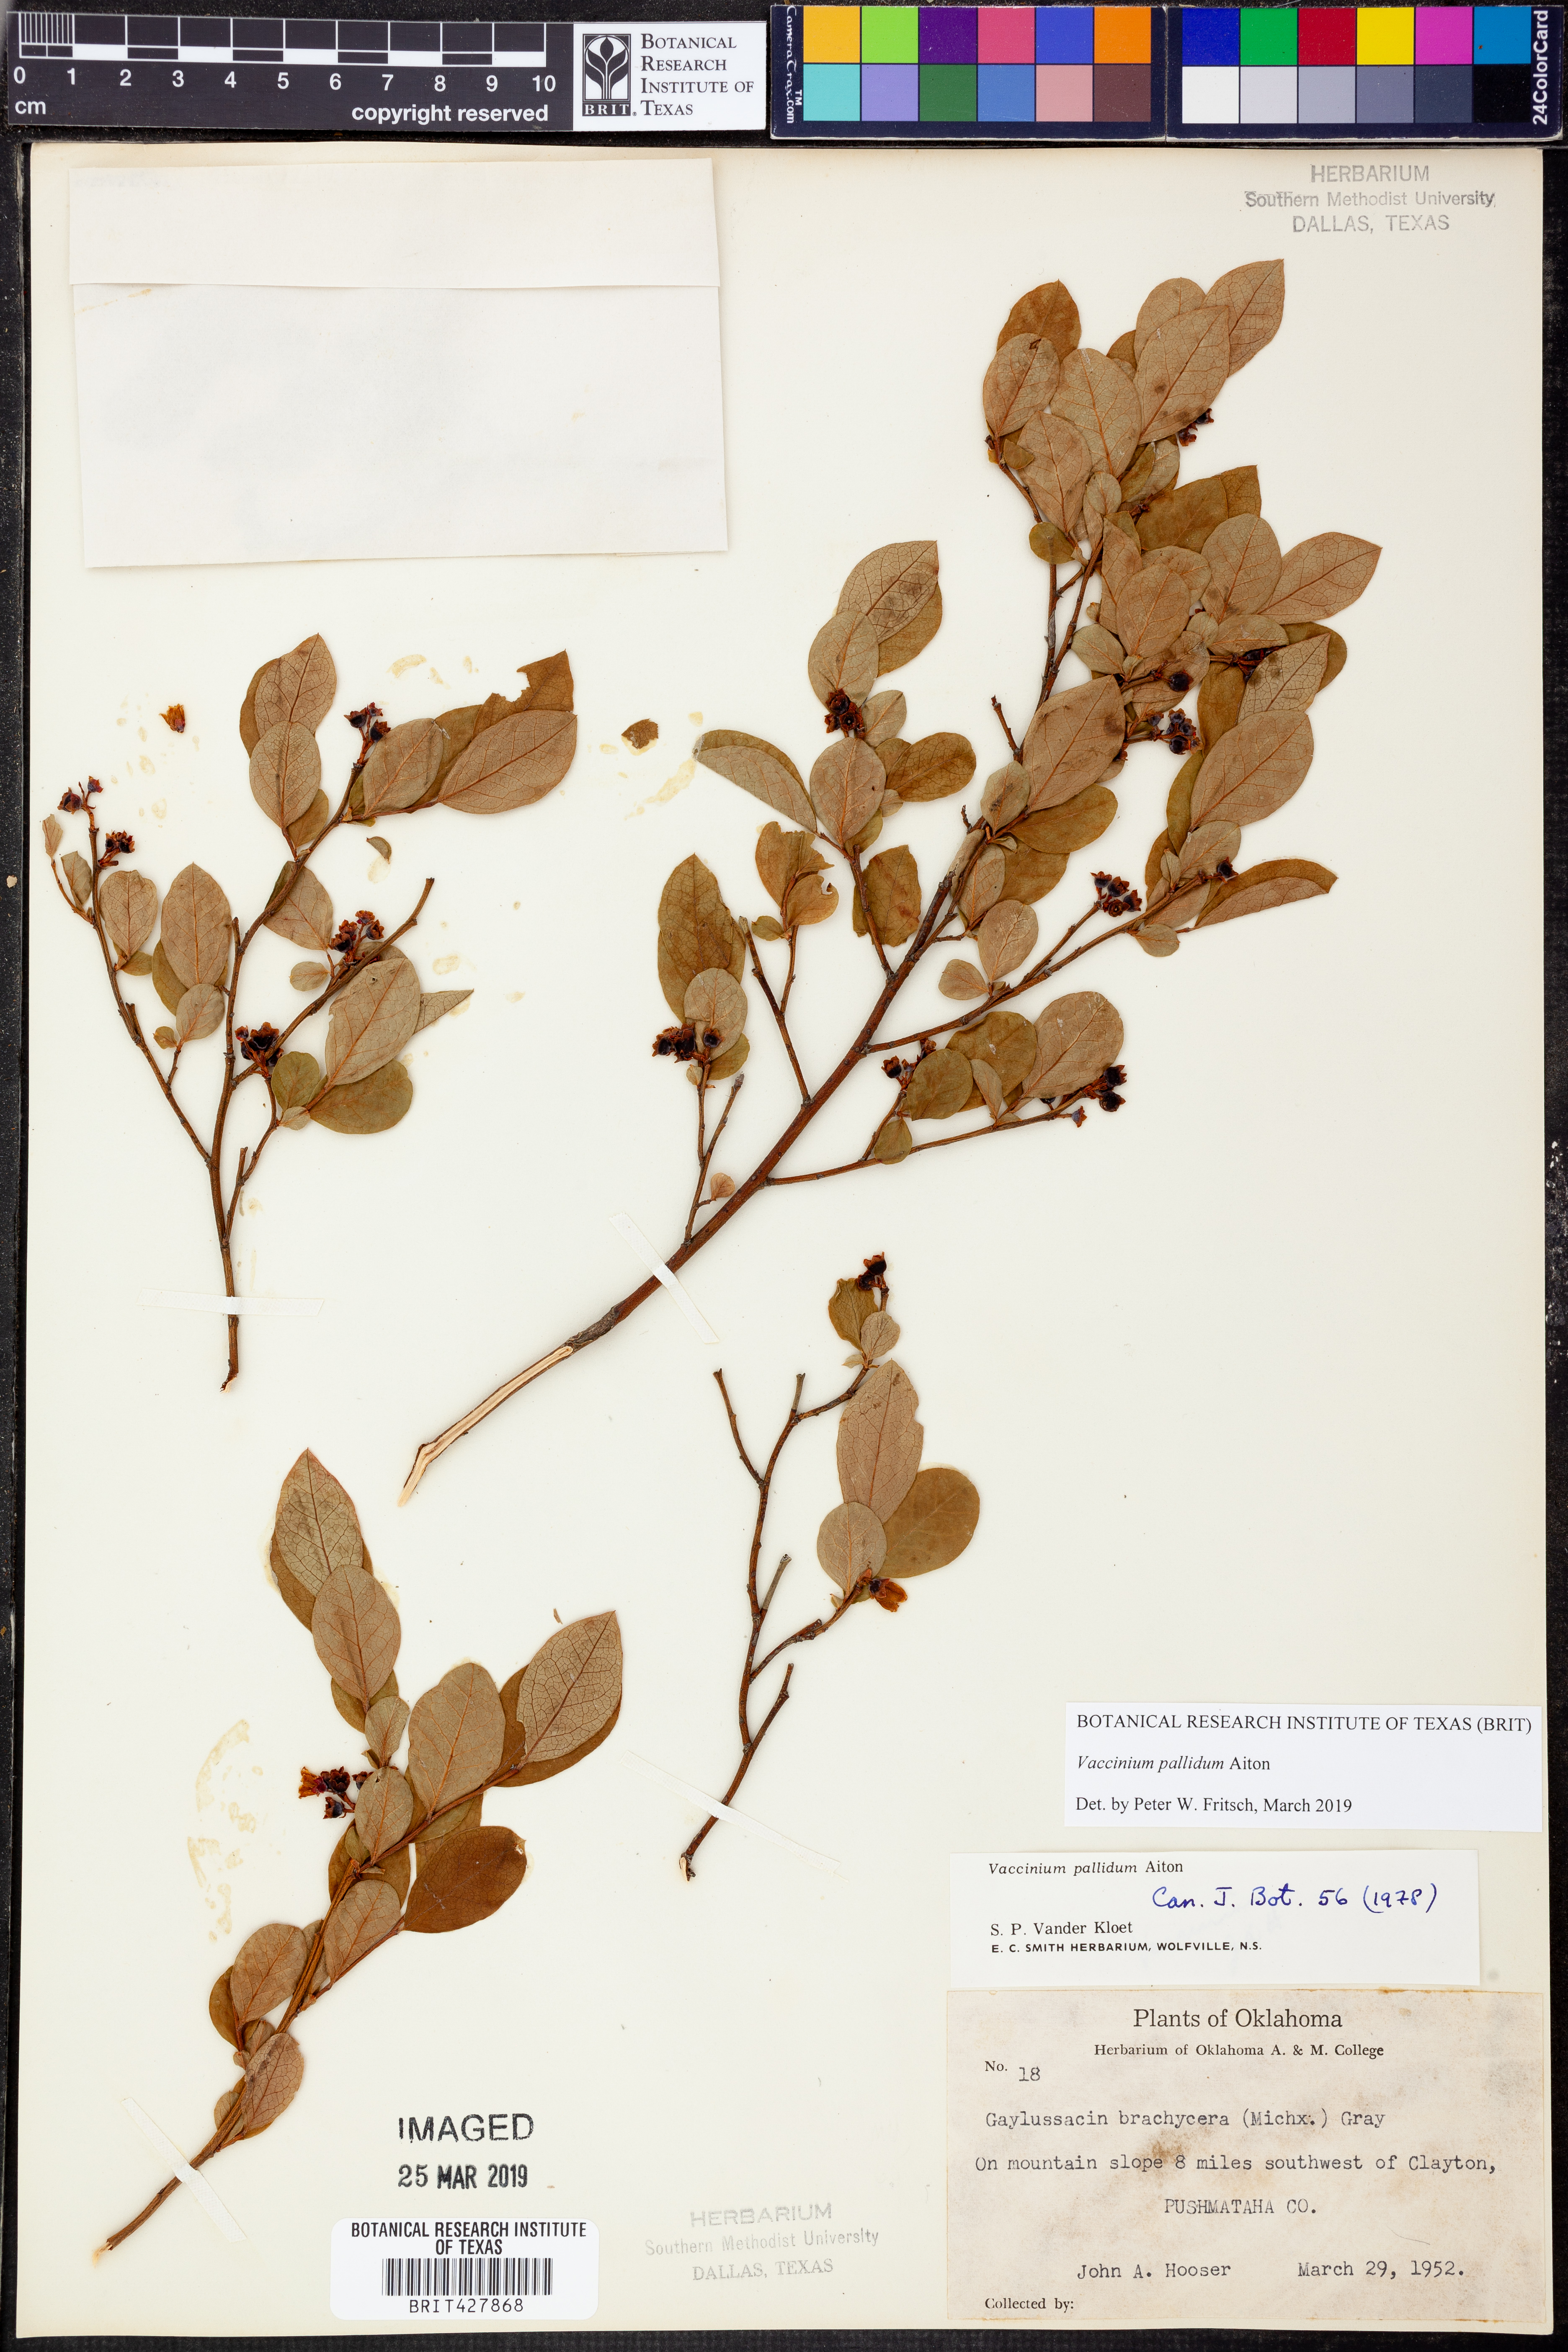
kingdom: Plantae
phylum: Tracheophyta
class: Magnoliopsida
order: Ericales
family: Ericaceae
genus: Vaccinium
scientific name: Vaccinium pallidum
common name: Blue ridge blueberry
